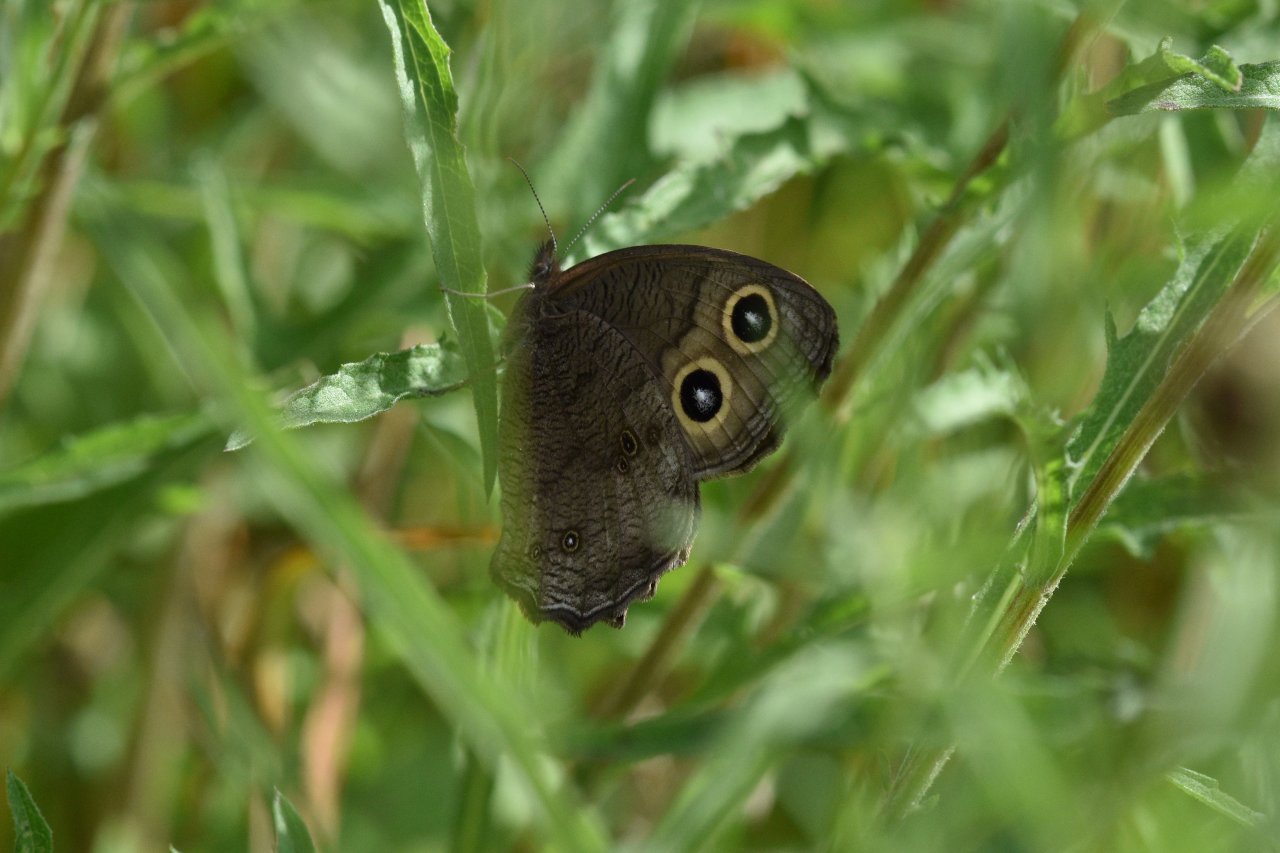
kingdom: Animalia
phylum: Arthropoda
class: Insecta
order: Lepidoptera
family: Nymphalidae
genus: Cercyonis
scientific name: Cercyonis pegala
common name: Common Wood-Nymph
